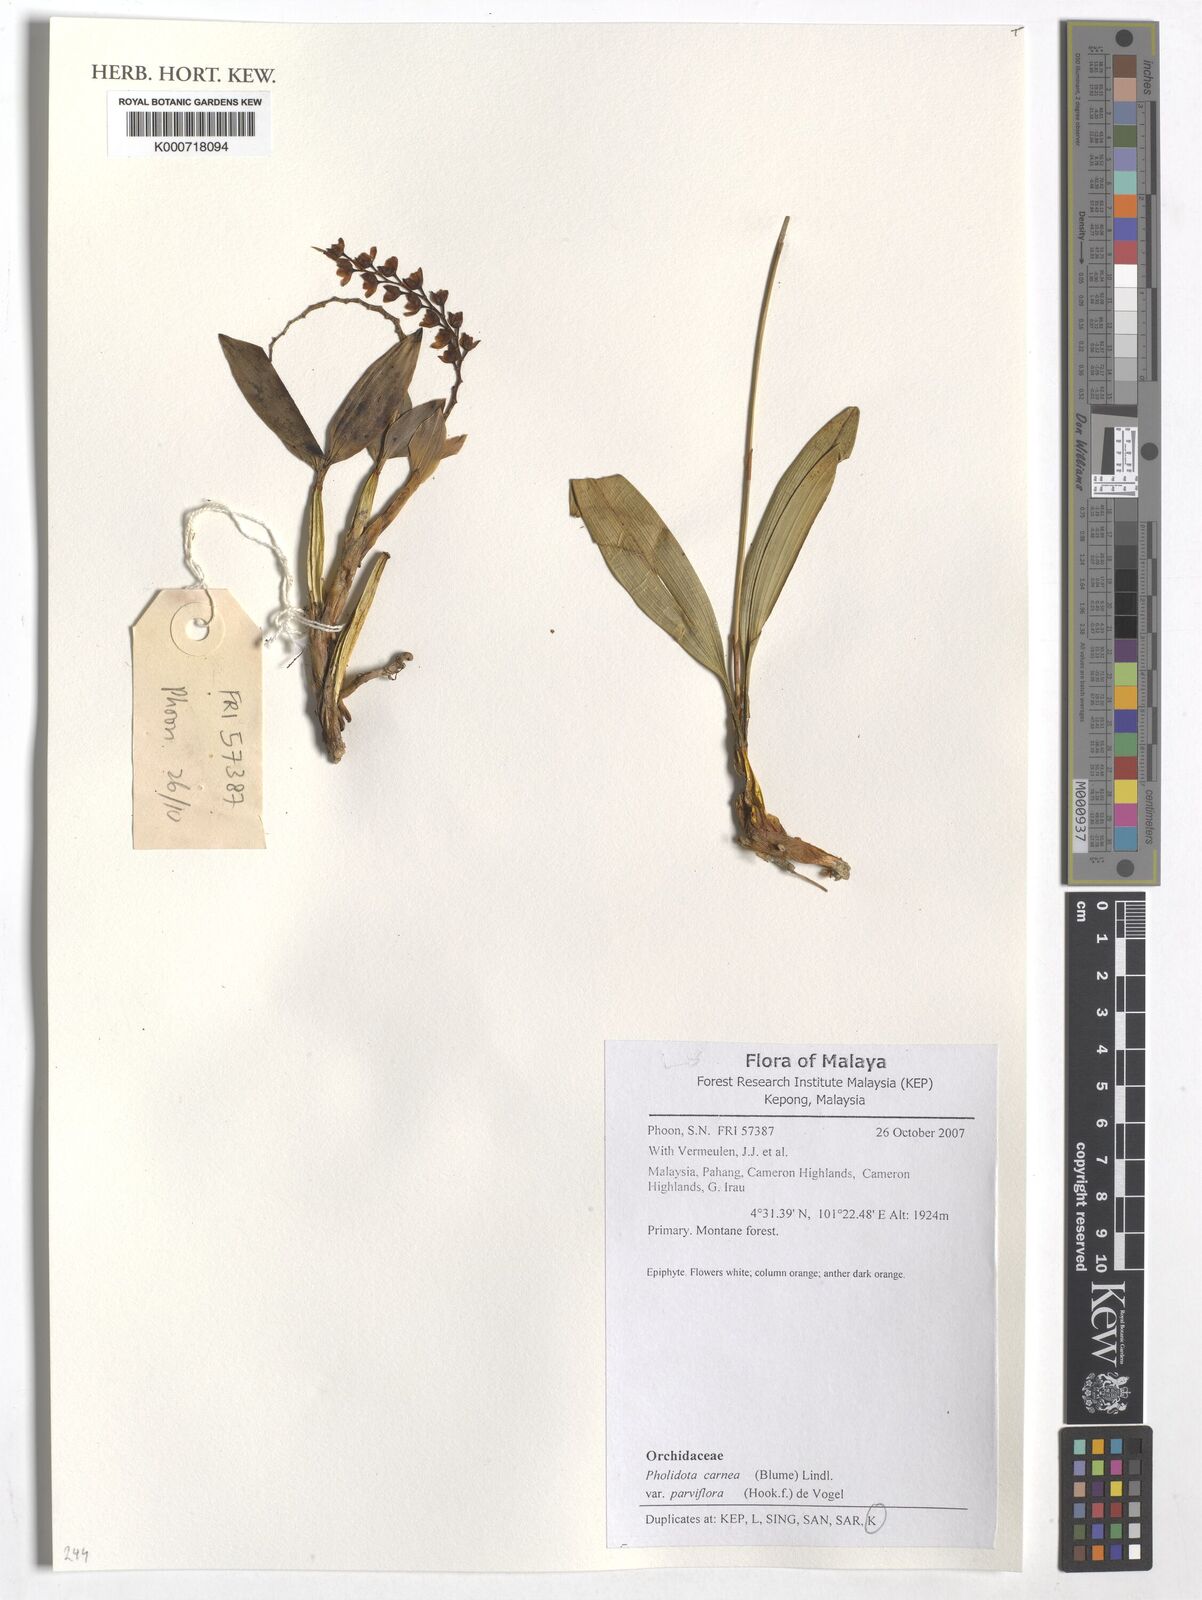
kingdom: Plantae
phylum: Tracheophyta
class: Liliopsida
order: Asparagales
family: Orchidaceae
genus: Coelogyne
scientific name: Coelogyne carnea
